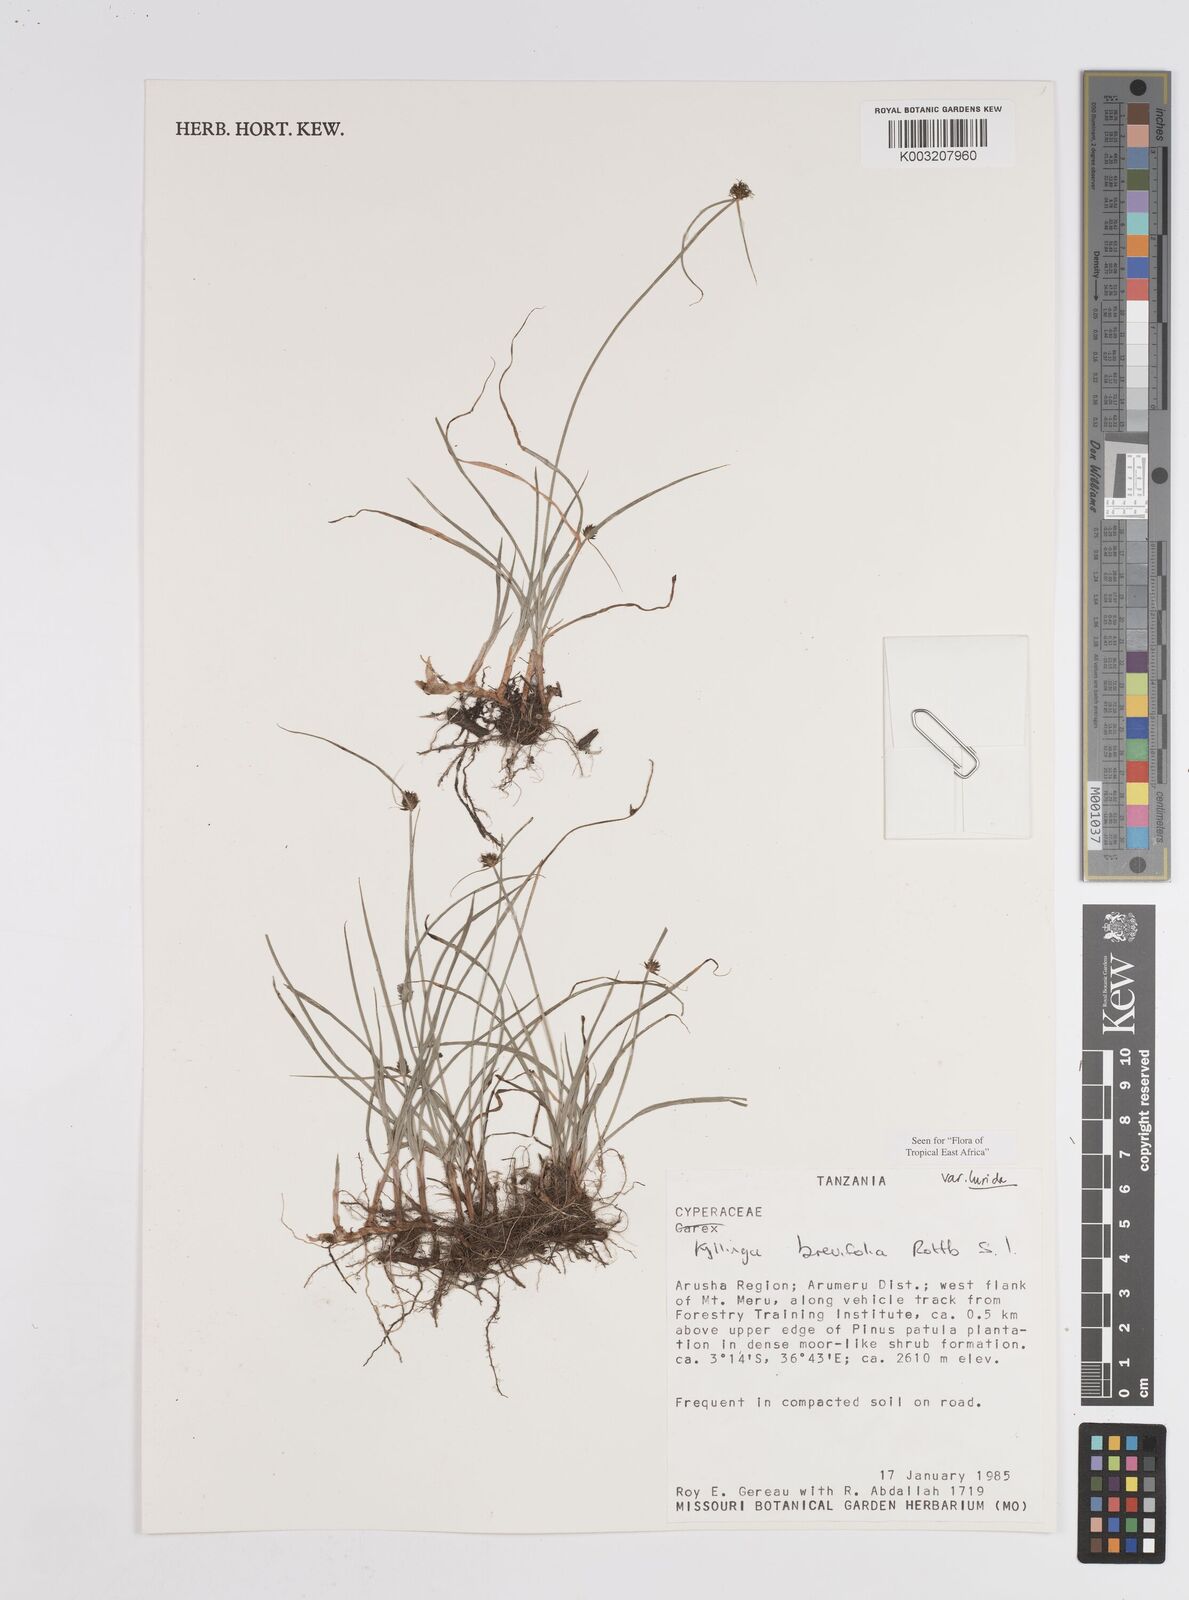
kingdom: Plantae
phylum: Tracheophyta
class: Liliopsida
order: Poales
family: Cyperaceae
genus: Cyperus
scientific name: Cyperus erectus
